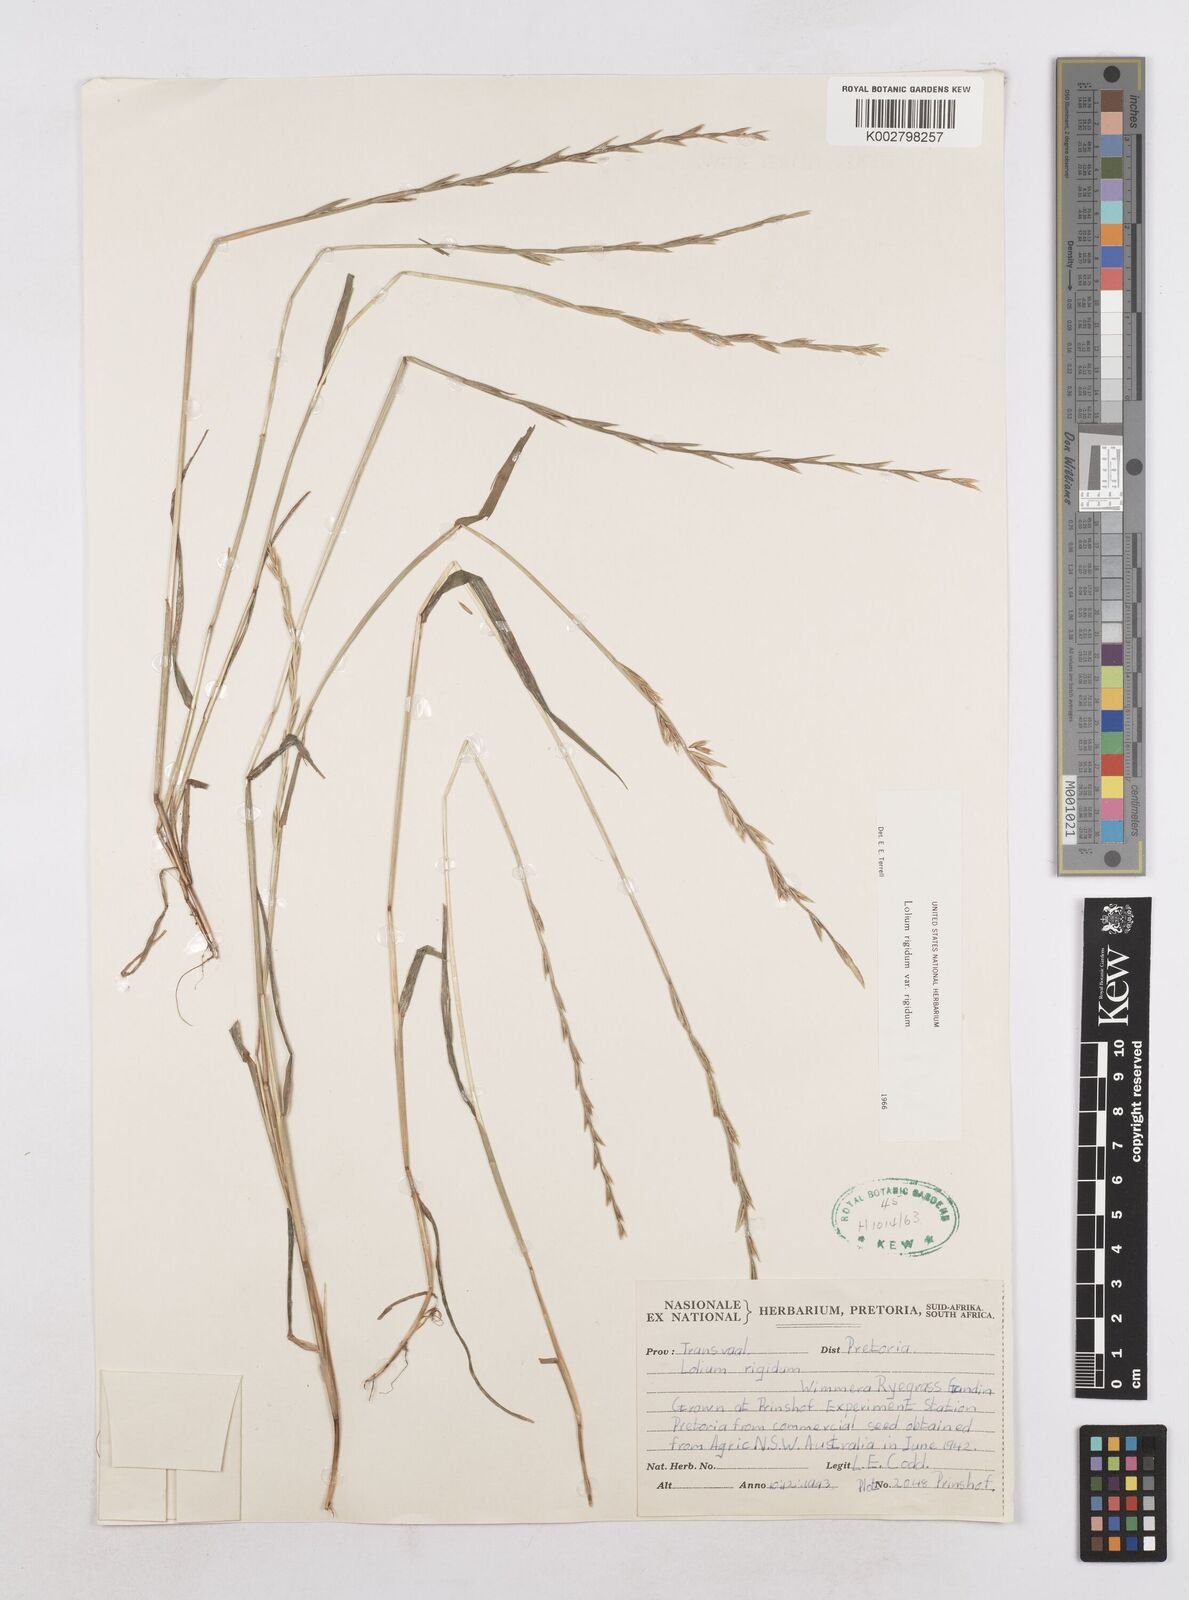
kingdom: Plantae
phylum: Tracheophyta
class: Liliopsida
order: Poales
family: Poaceae
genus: Lolium
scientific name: Lolium rigidum
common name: Wimmera ryegrass
